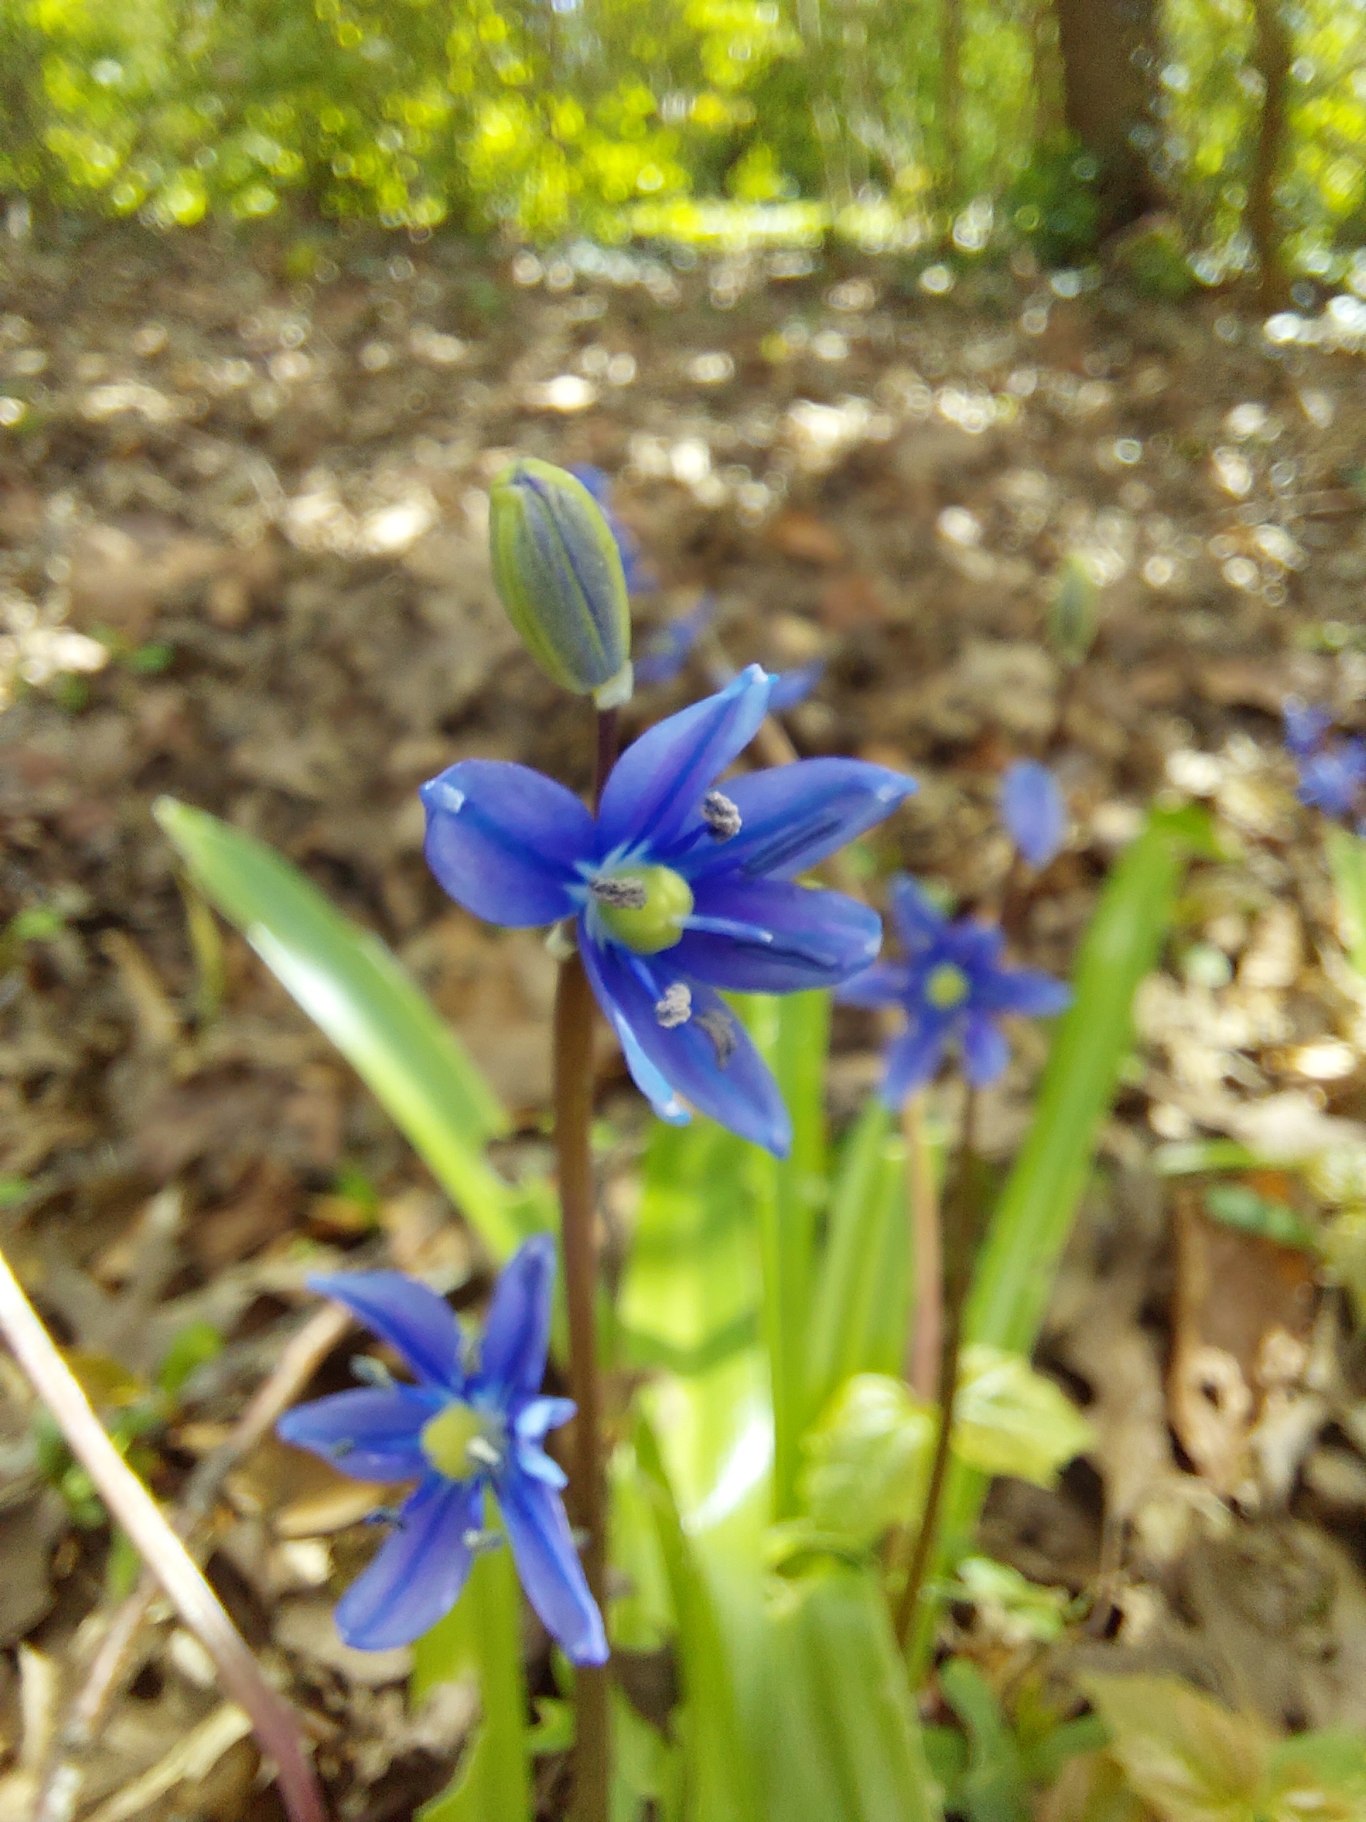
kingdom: Plantae
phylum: Tracheophyta
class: Liliopsida
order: Asparagales
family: Asparagaceae
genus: Scilla
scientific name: Scilla amoena
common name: Himmelblå skilla
